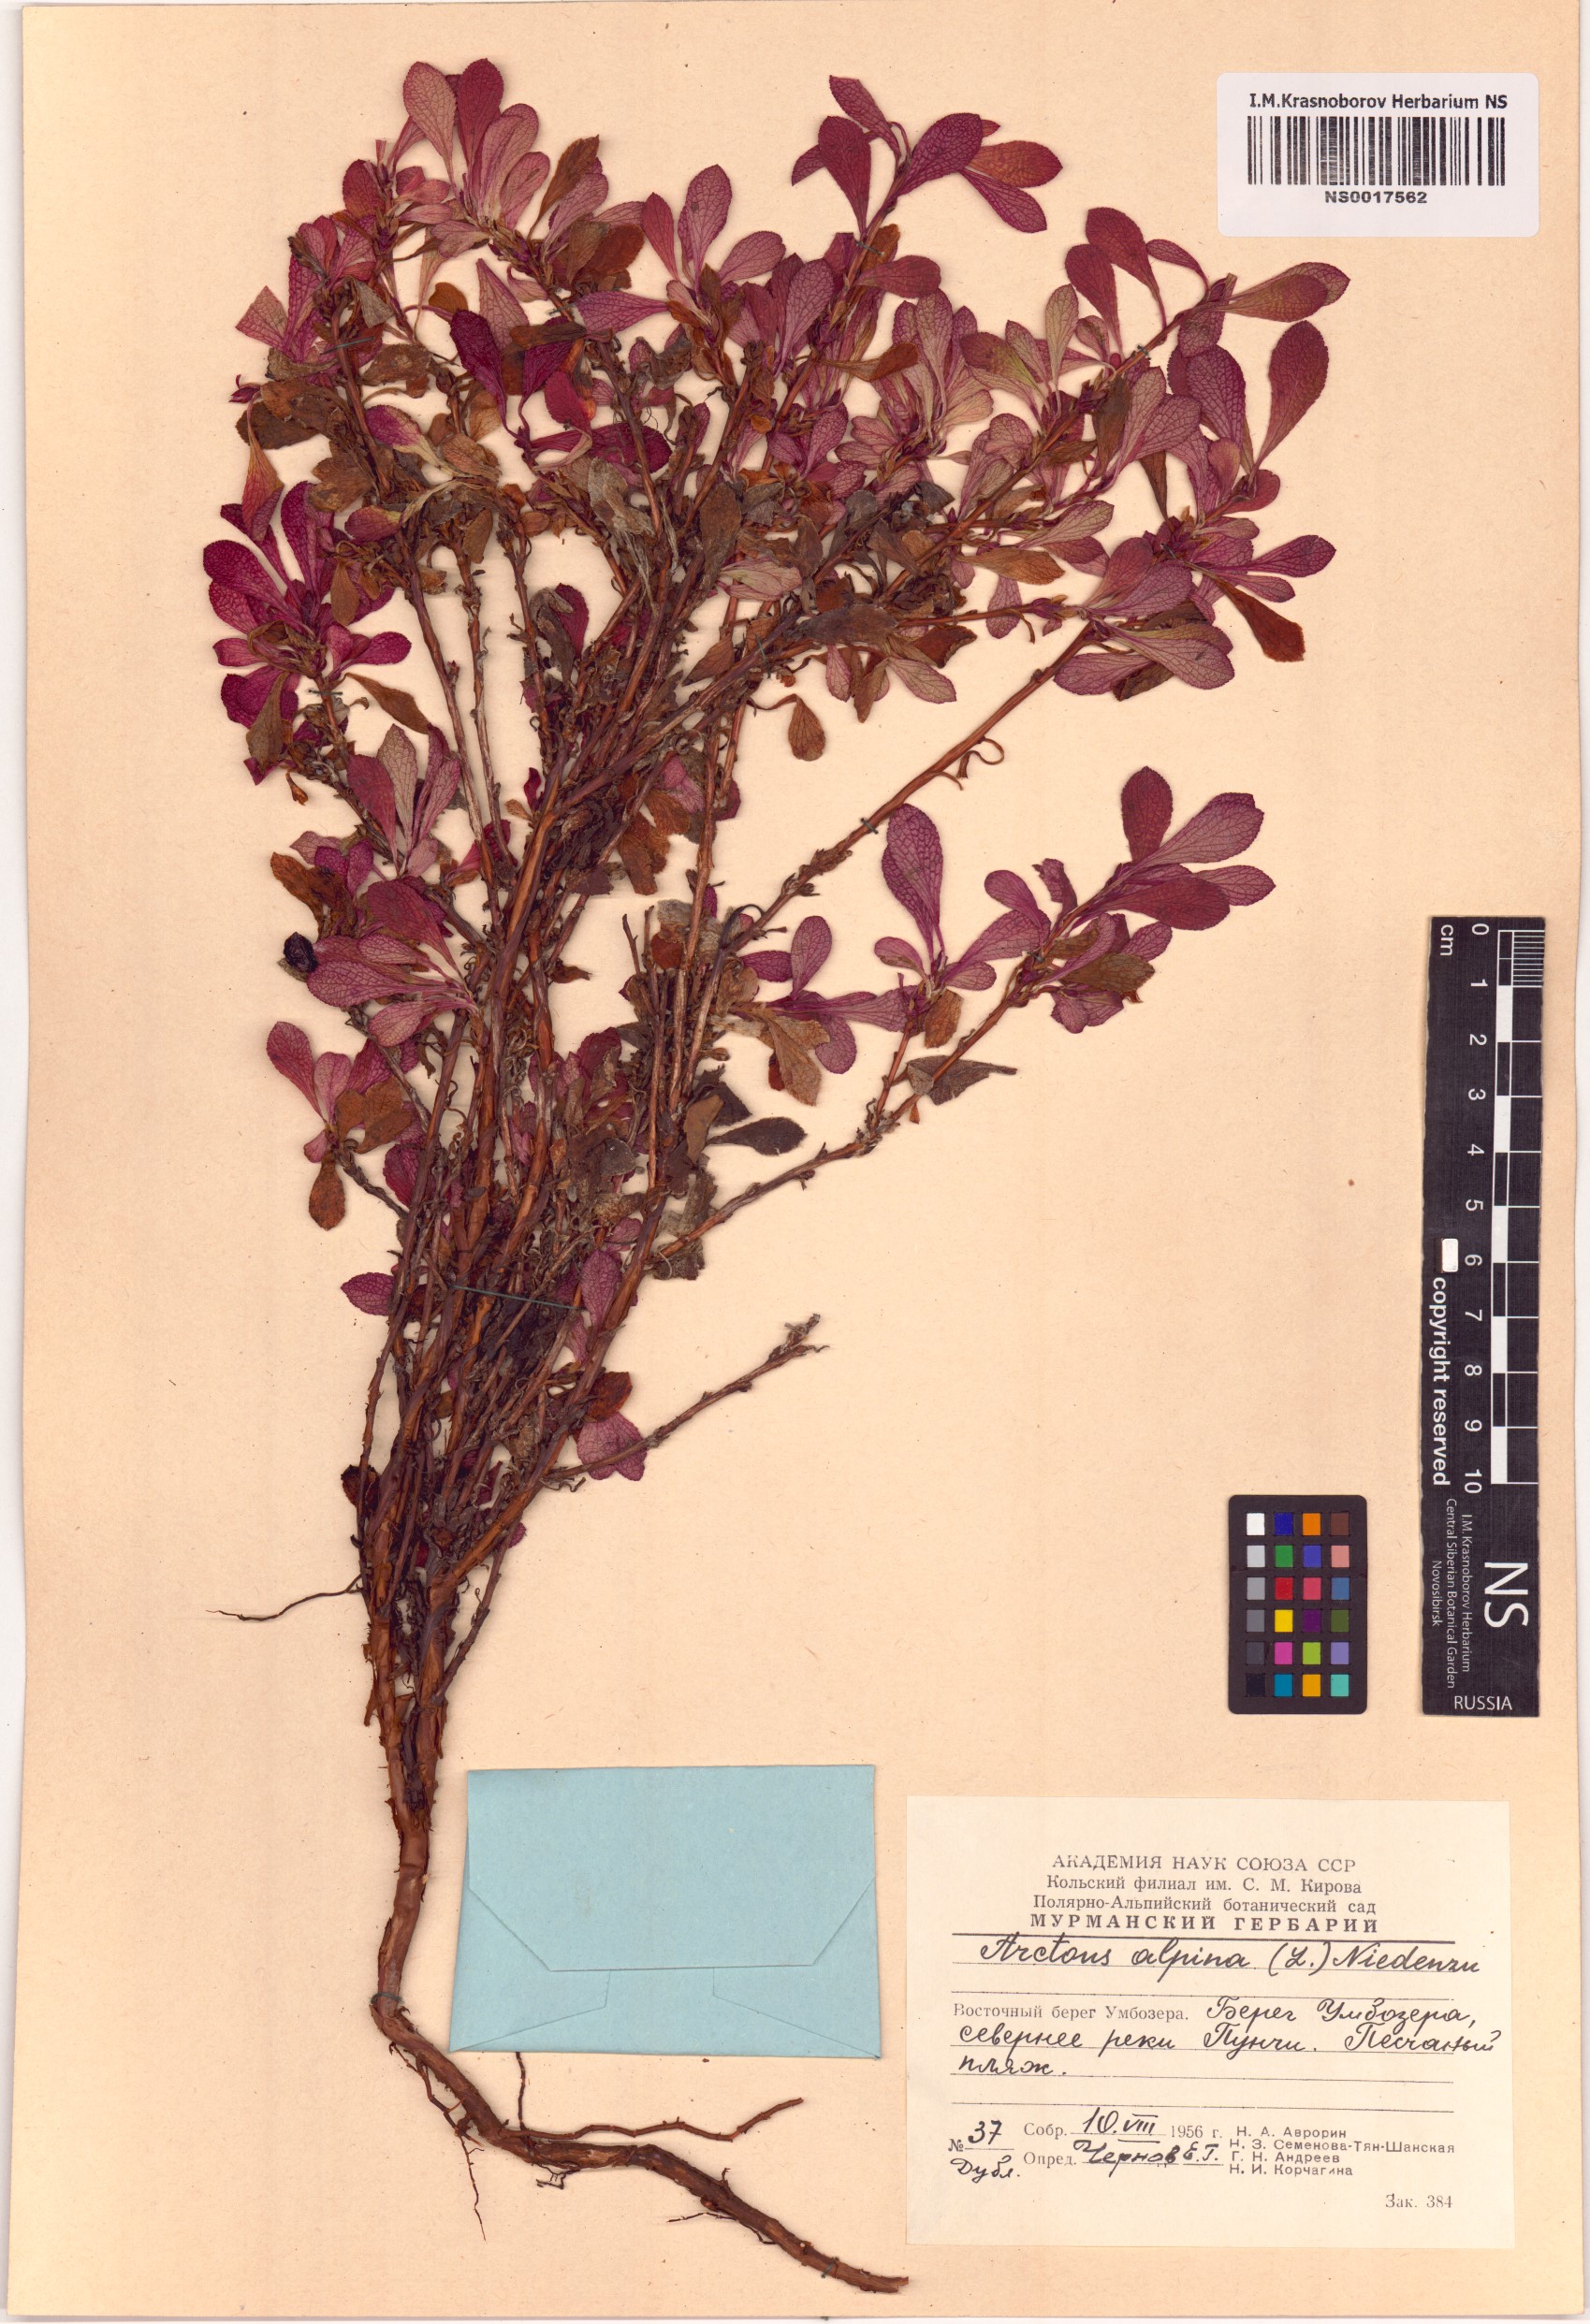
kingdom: Plantae
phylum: Tracheophyta
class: Magnoliopsida
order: Ericales
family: Ericaceae
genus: Arctostaphylos
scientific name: Arctostaphylos alpinus
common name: Alpine bearberry
